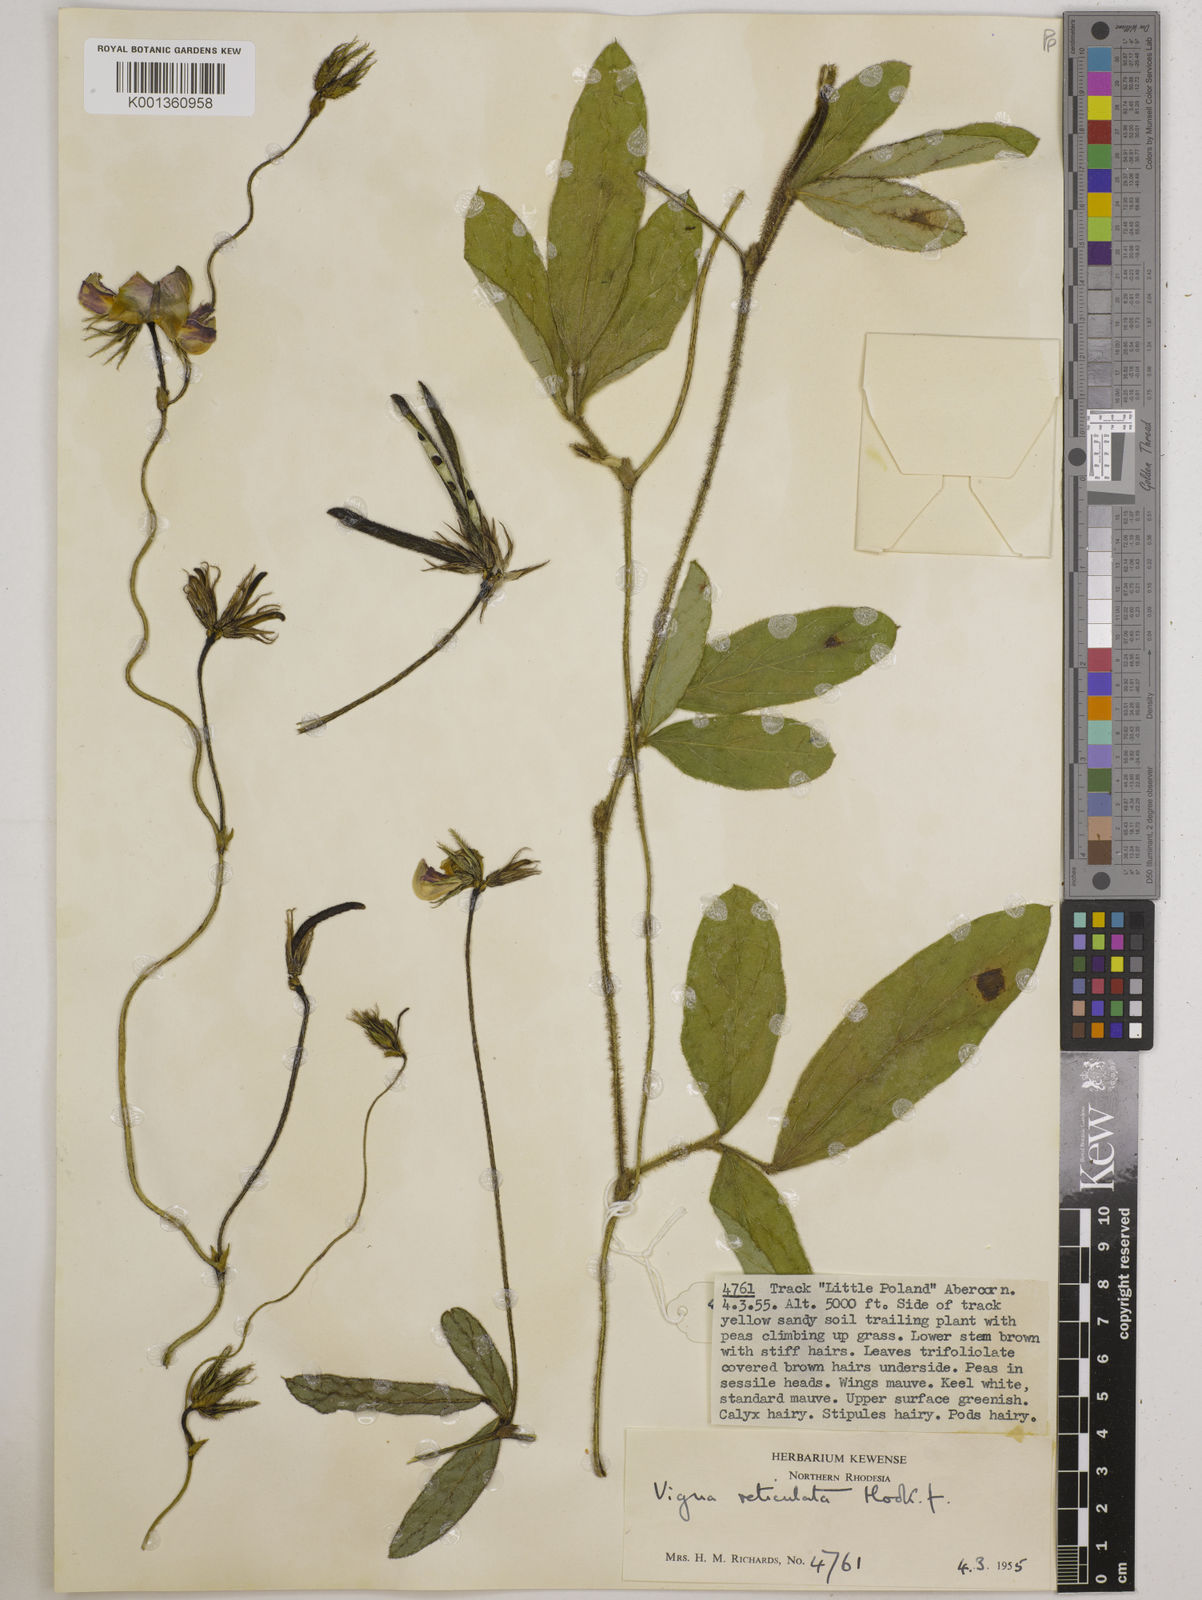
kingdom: Plantae
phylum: Tracheophyta
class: Magnoliopsida
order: Fabales
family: Fabaceae
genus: Vigna
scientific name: Vigna reticulata
